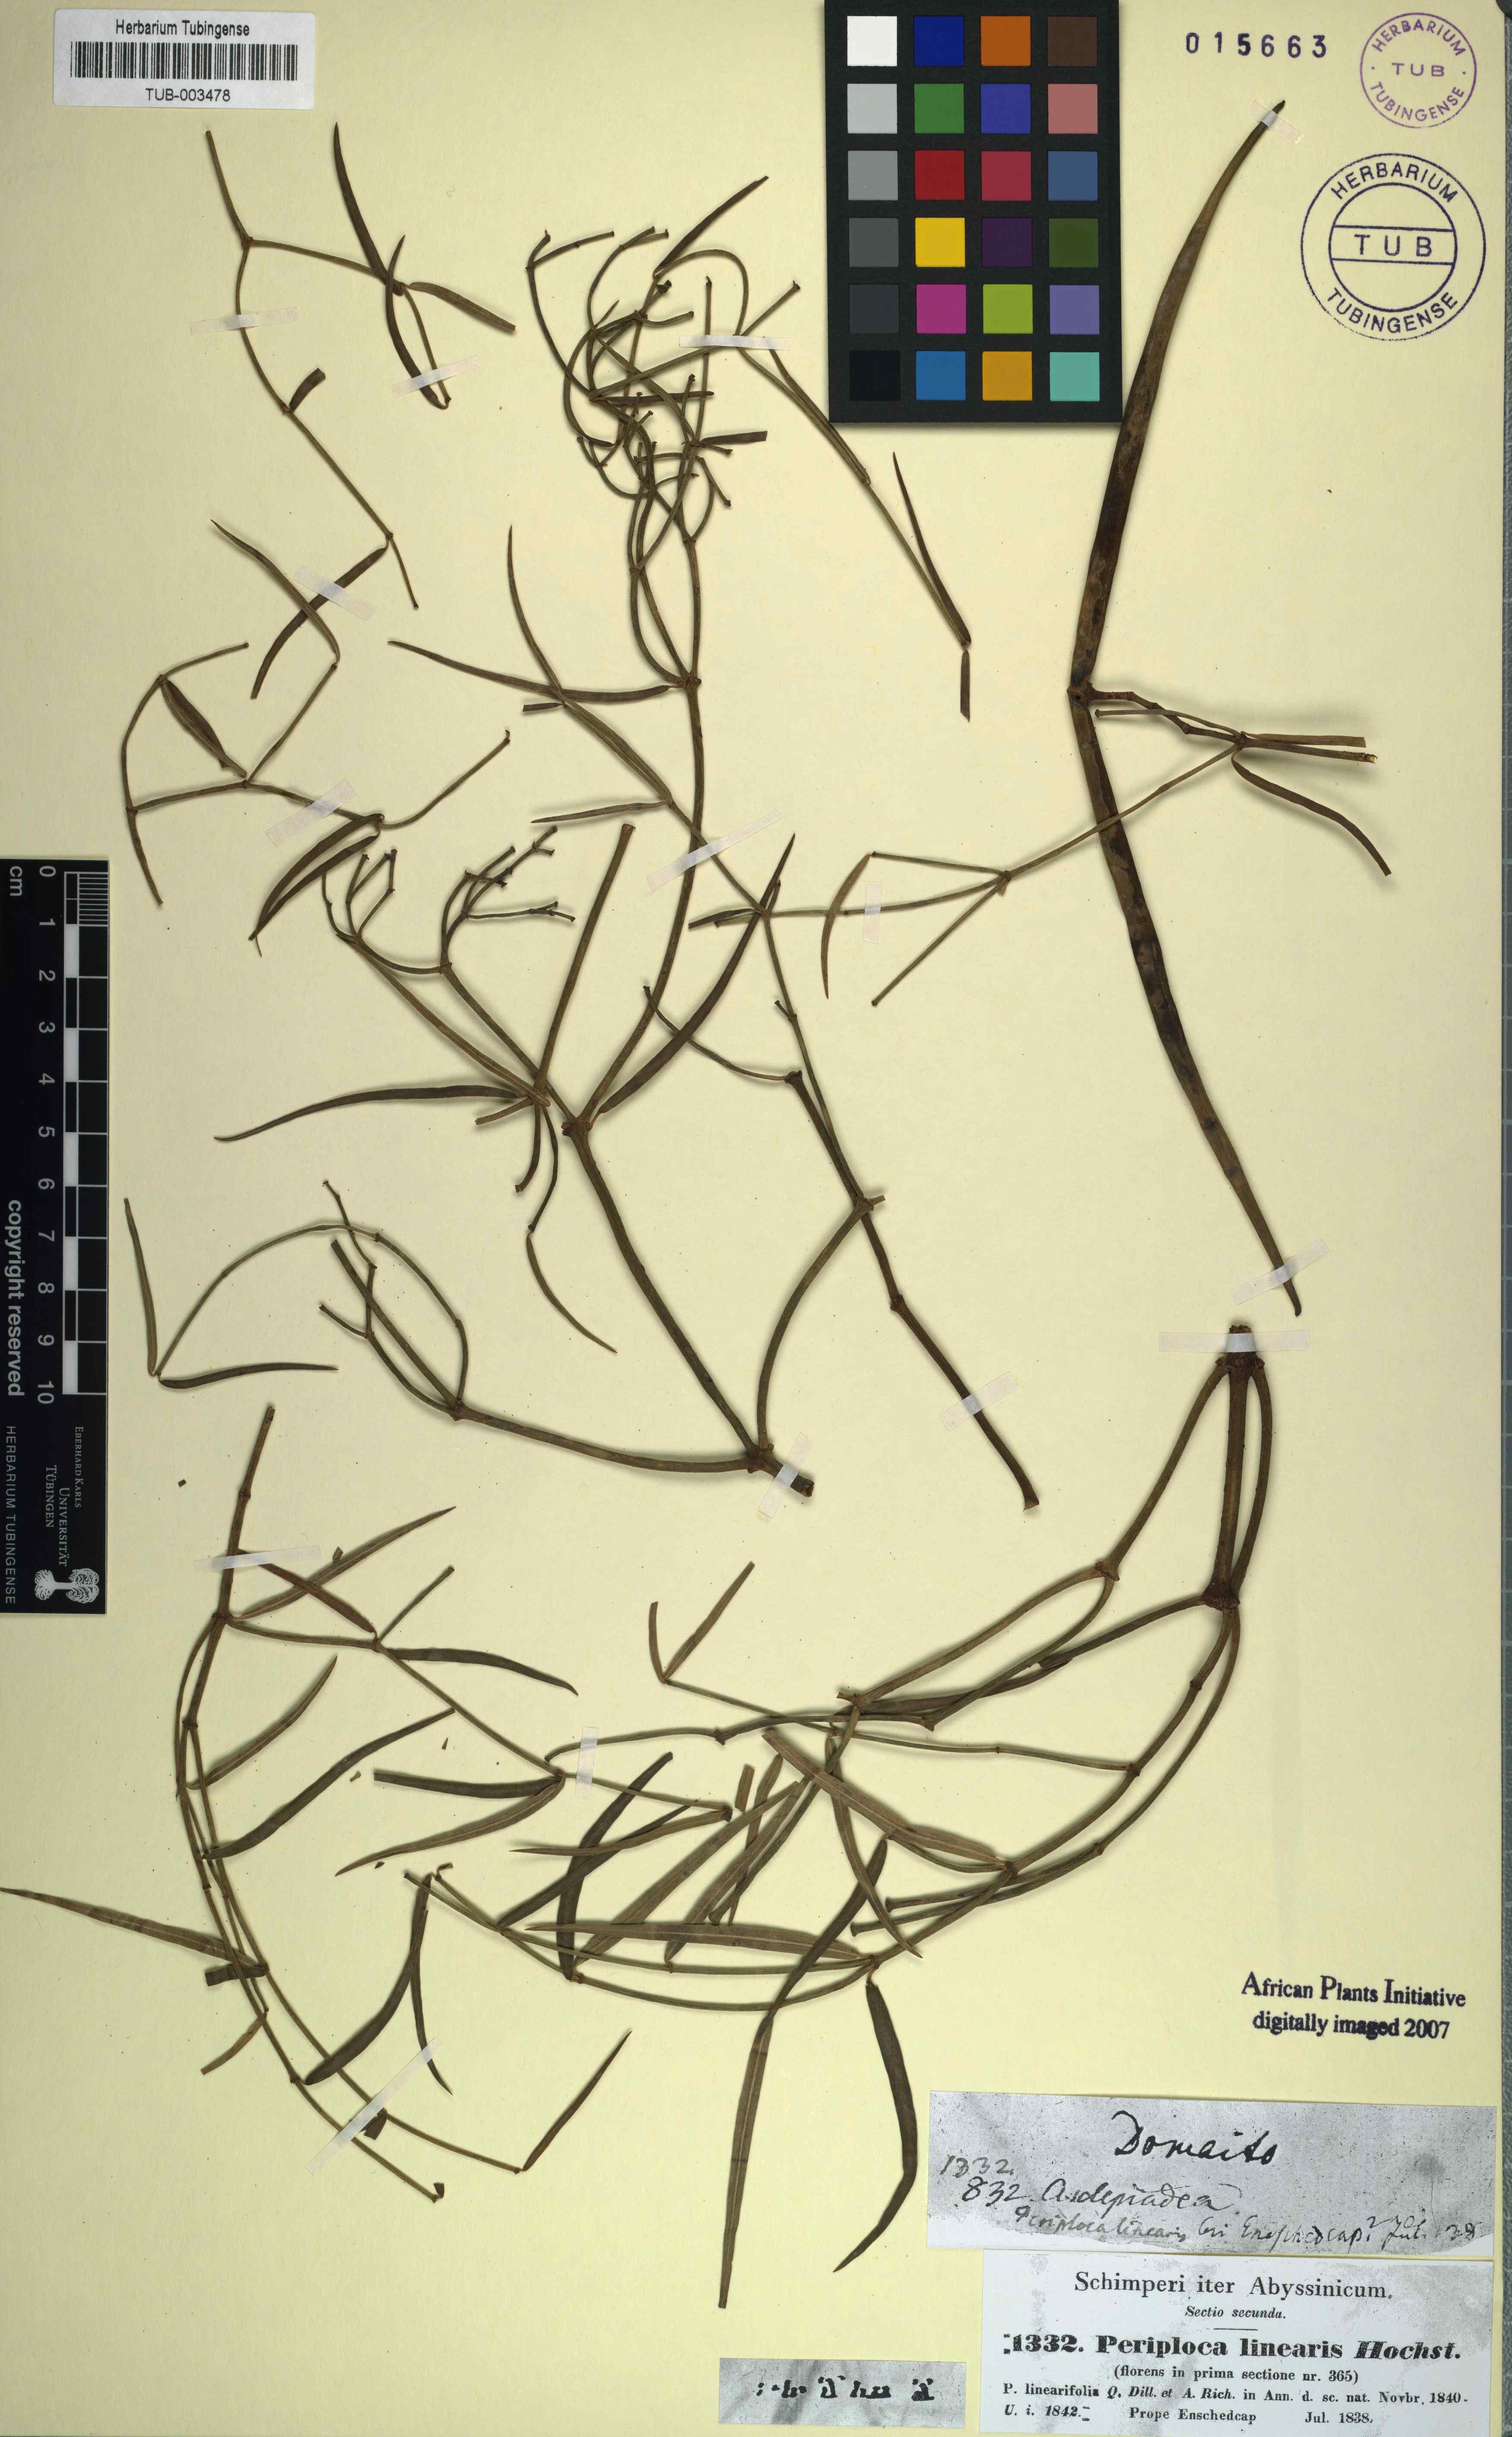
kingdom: Plantae
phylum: Tracheophyta
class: Magnoliopsida
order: Gentianales
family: Apocynaceae
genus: Periploca
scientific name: Periploca linearifolia
